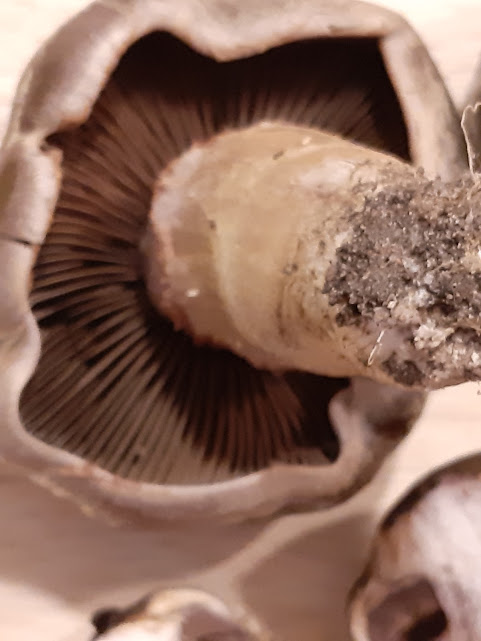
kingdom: Fungi
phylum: Basidiomycota
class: Agaricomycetes
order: Agaricales
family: Cortinariaceae
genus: Cortinarius
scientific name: Cortinarius
